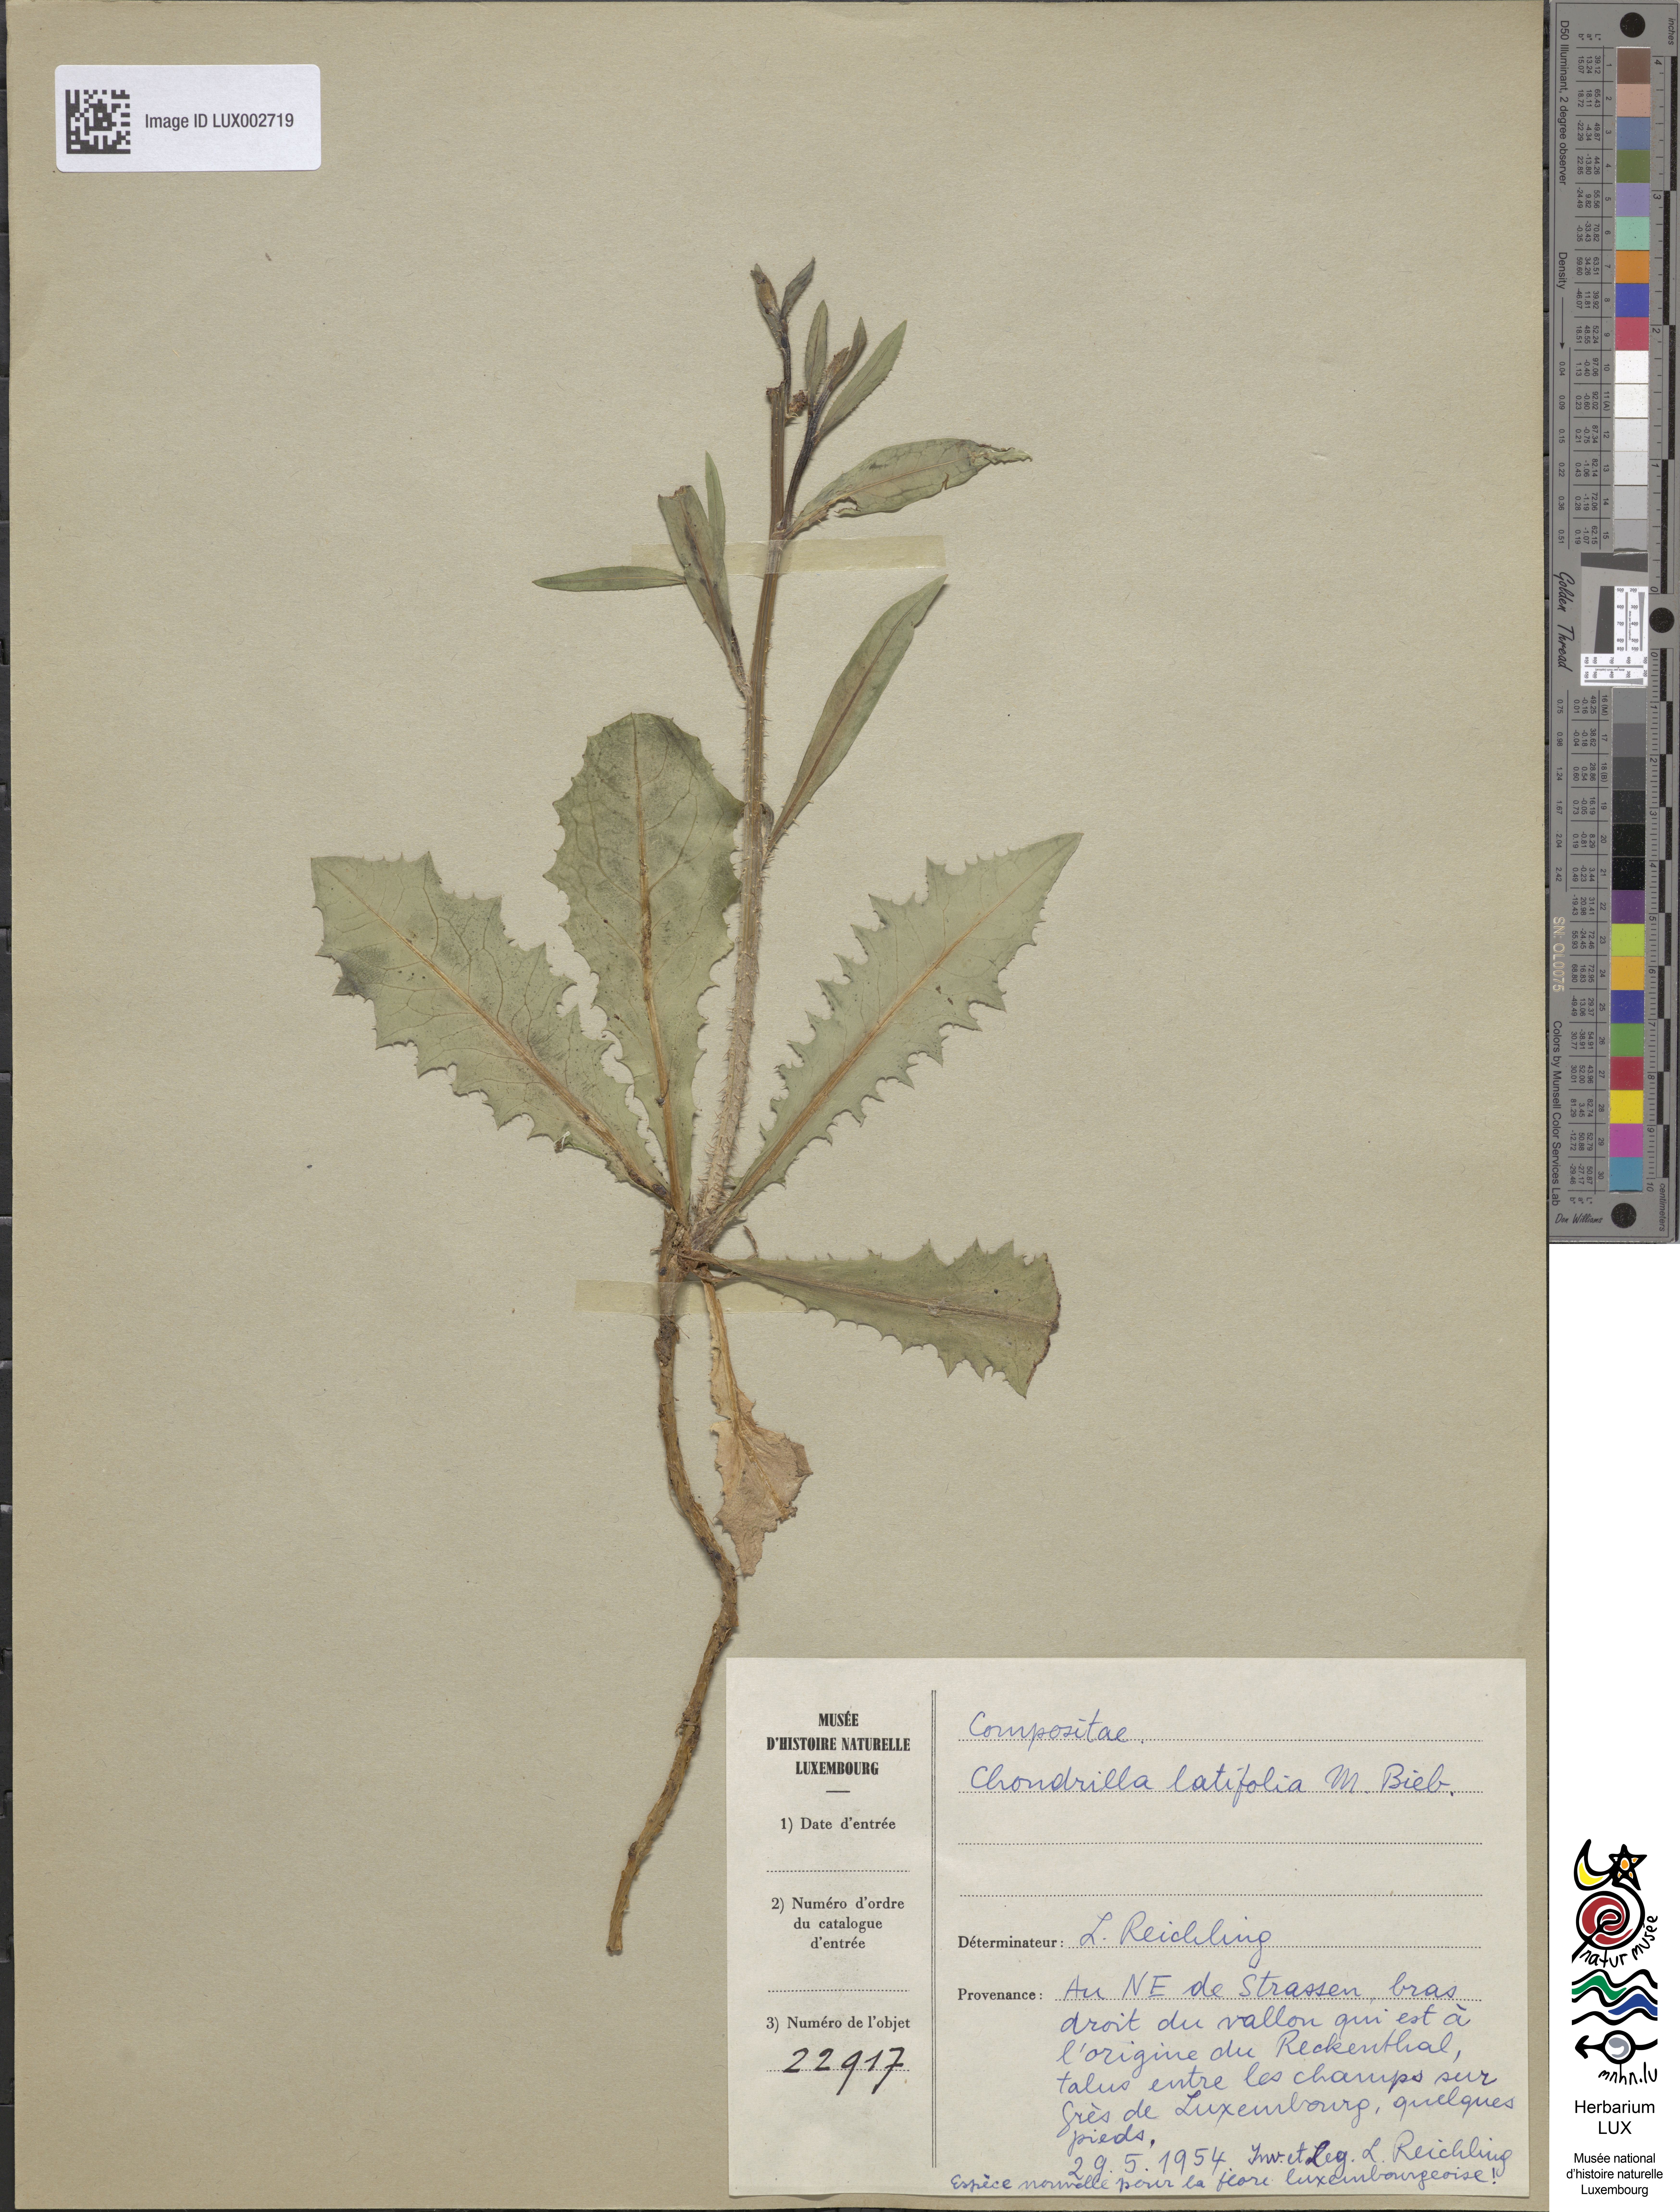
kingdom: Plantae
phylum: Tracheophyta
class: Magnoliopsida
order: Asterales
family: Asteraceae
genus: Chondrilla
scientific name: Chondrilla juncea
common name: Skeleton weed
